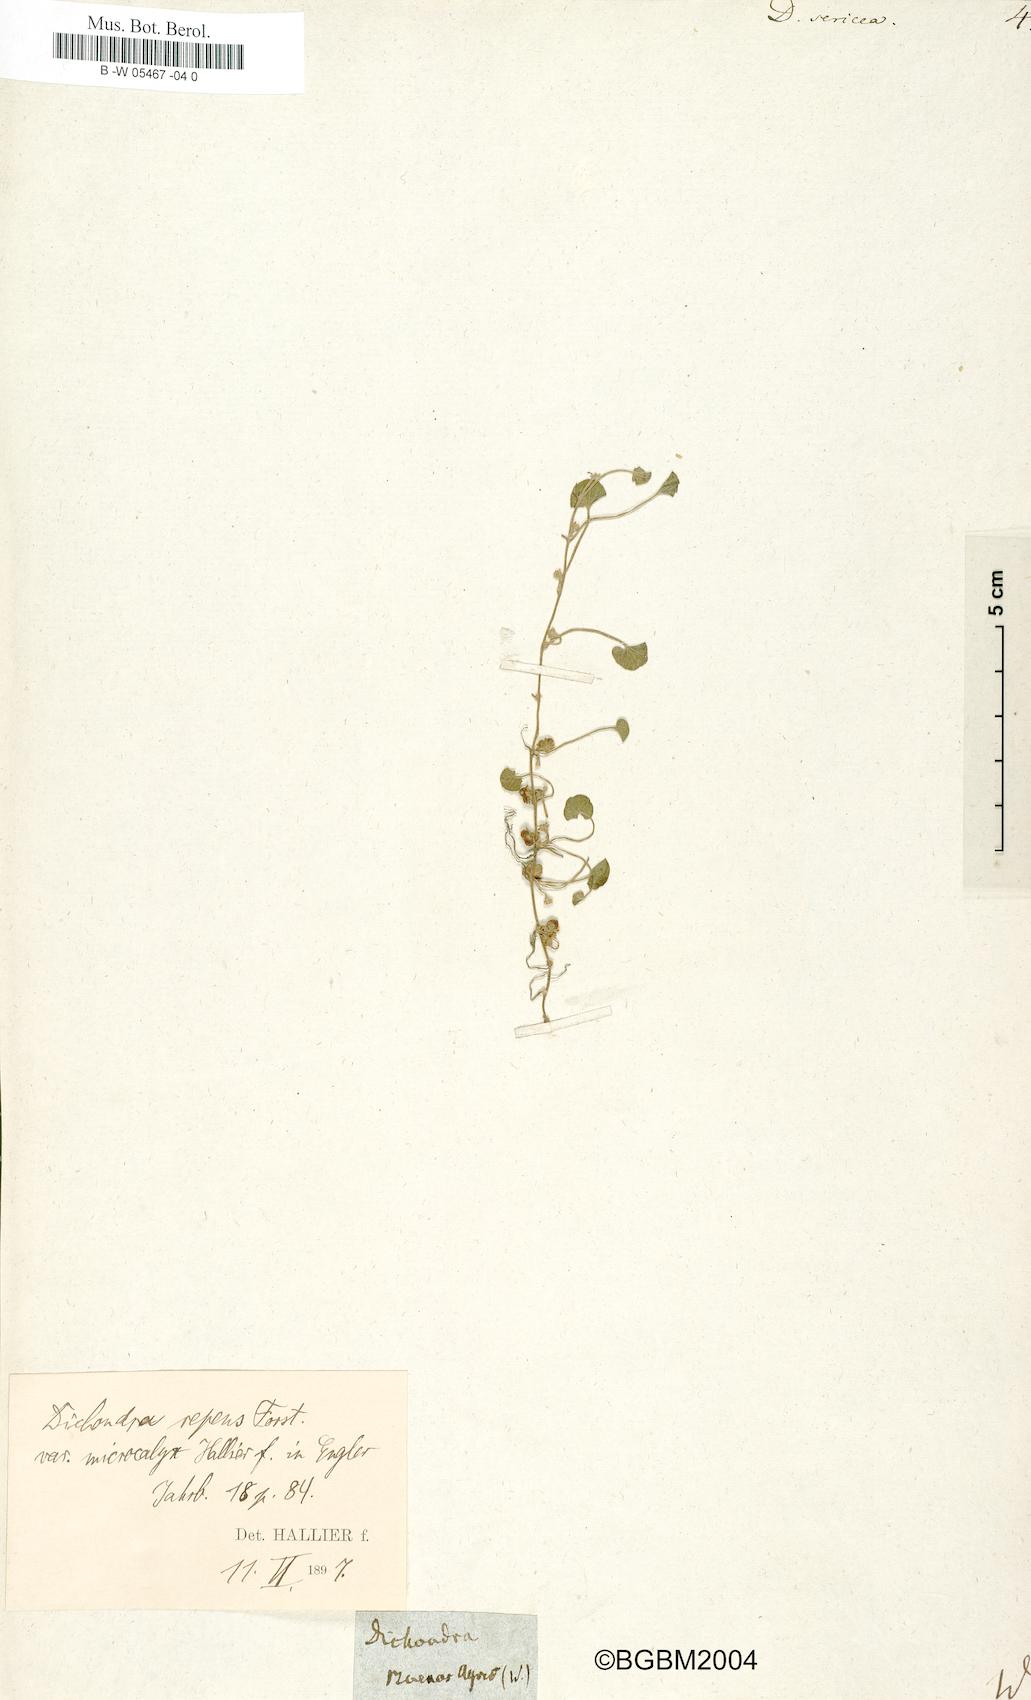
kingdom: Plantae
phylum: Tracheophyta
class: Magnoliopsida
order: Solanales
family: Convolvulaceae
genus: Dichondra
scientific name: Dichondra sericea
